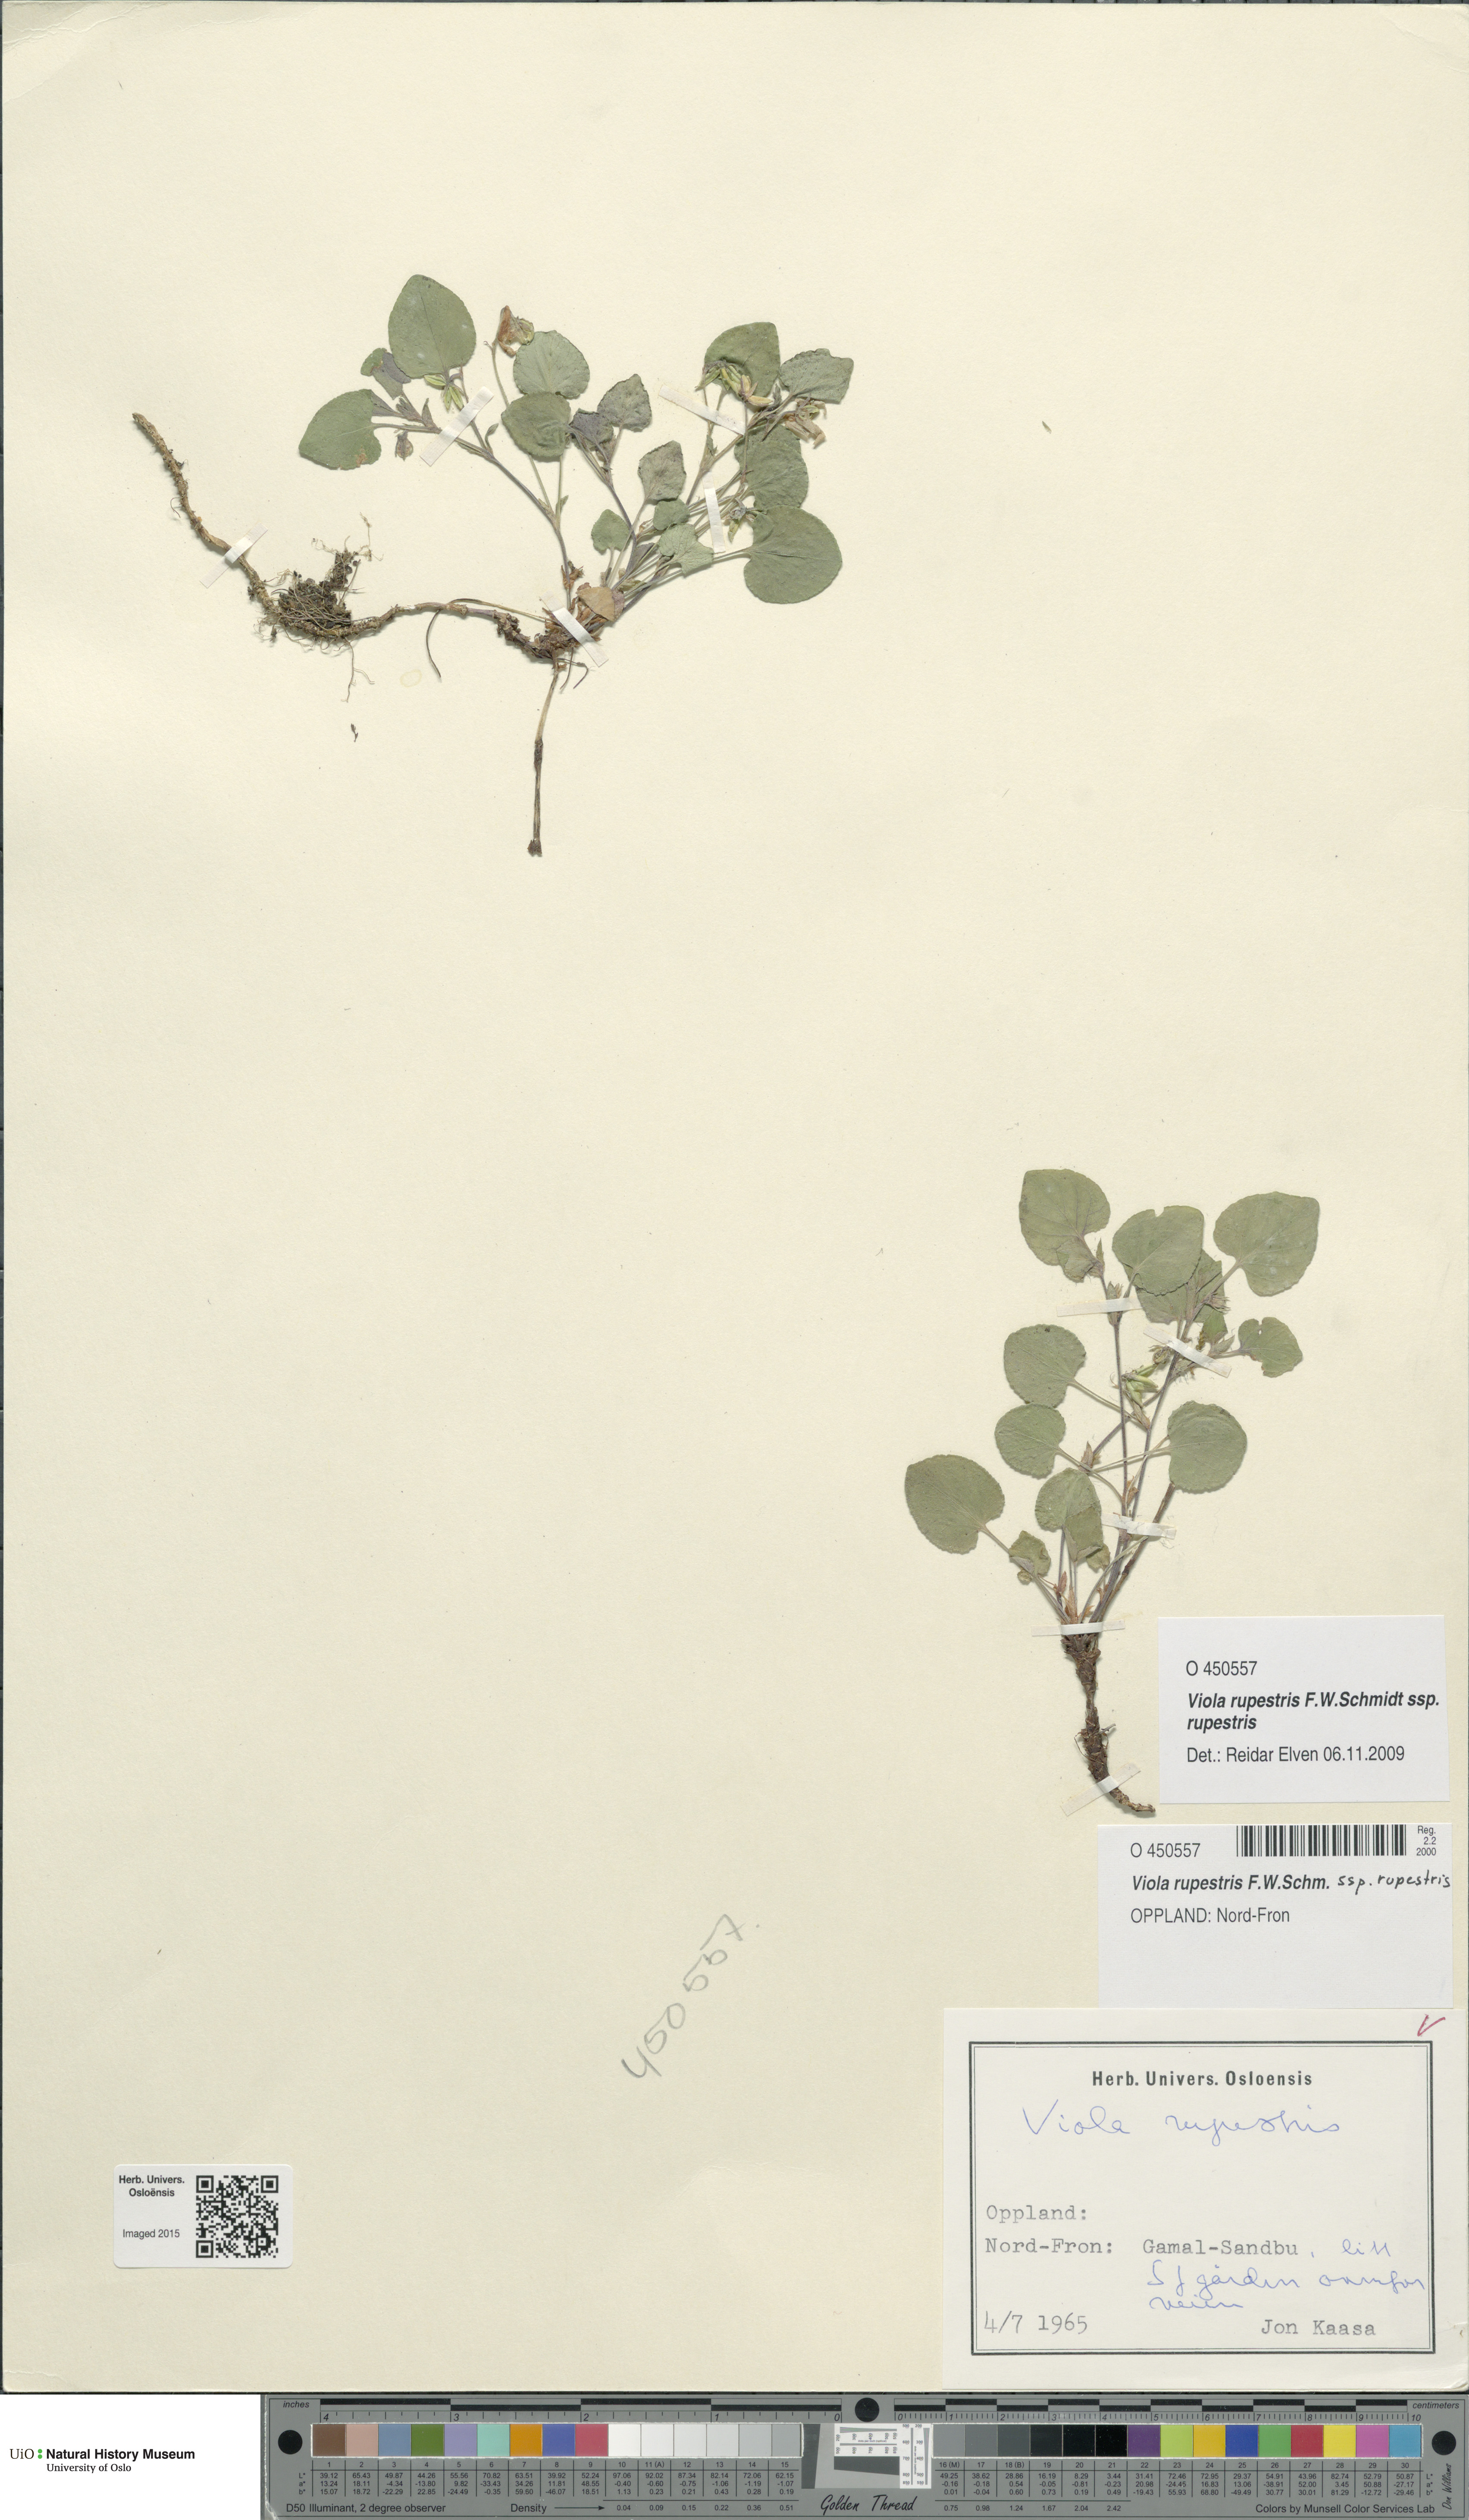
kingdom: Plantae
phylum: Tracheophyta
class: Magnoliopsida
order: Malpighiales
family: Violaceae
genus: Viola
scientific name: Viola rupestris
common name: Teesdale violet
